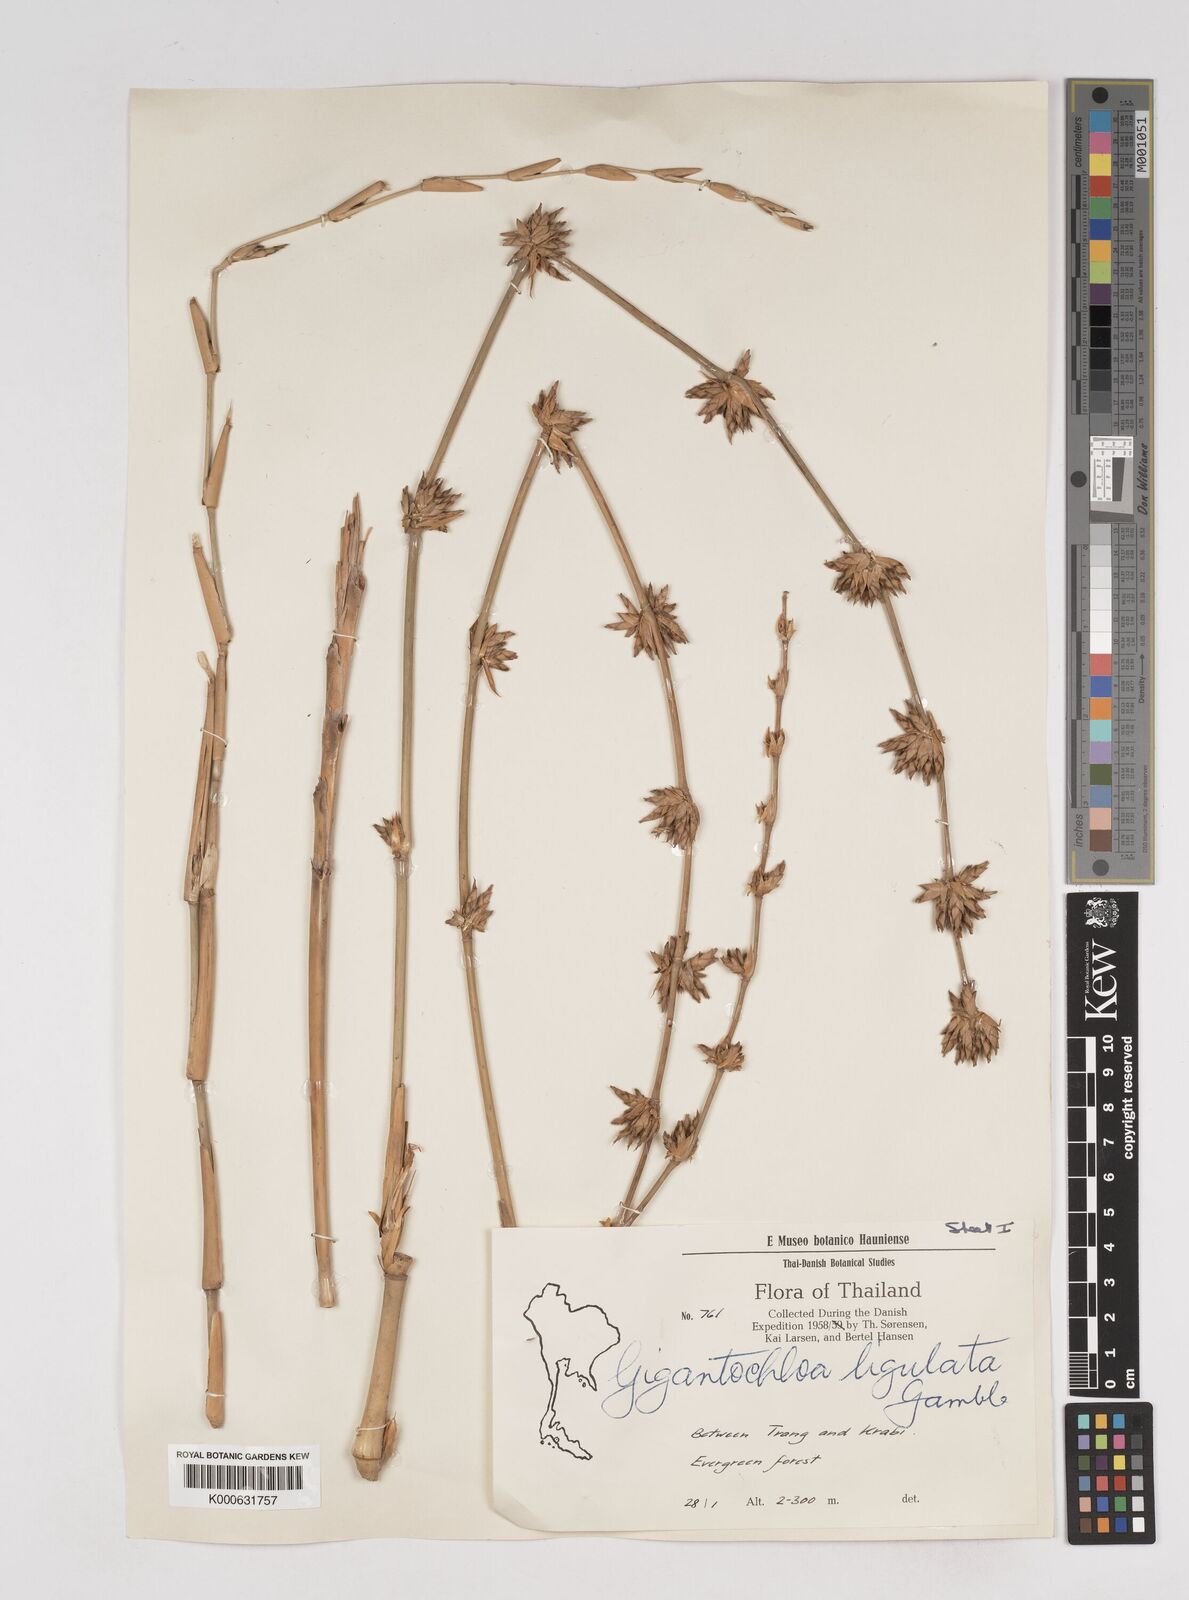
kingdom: Plantae
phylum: Tracheophyta
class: Liliopsida
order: Poales
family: Poaceae
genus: Gigantochloa
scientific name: Gigantochloa ligulata
